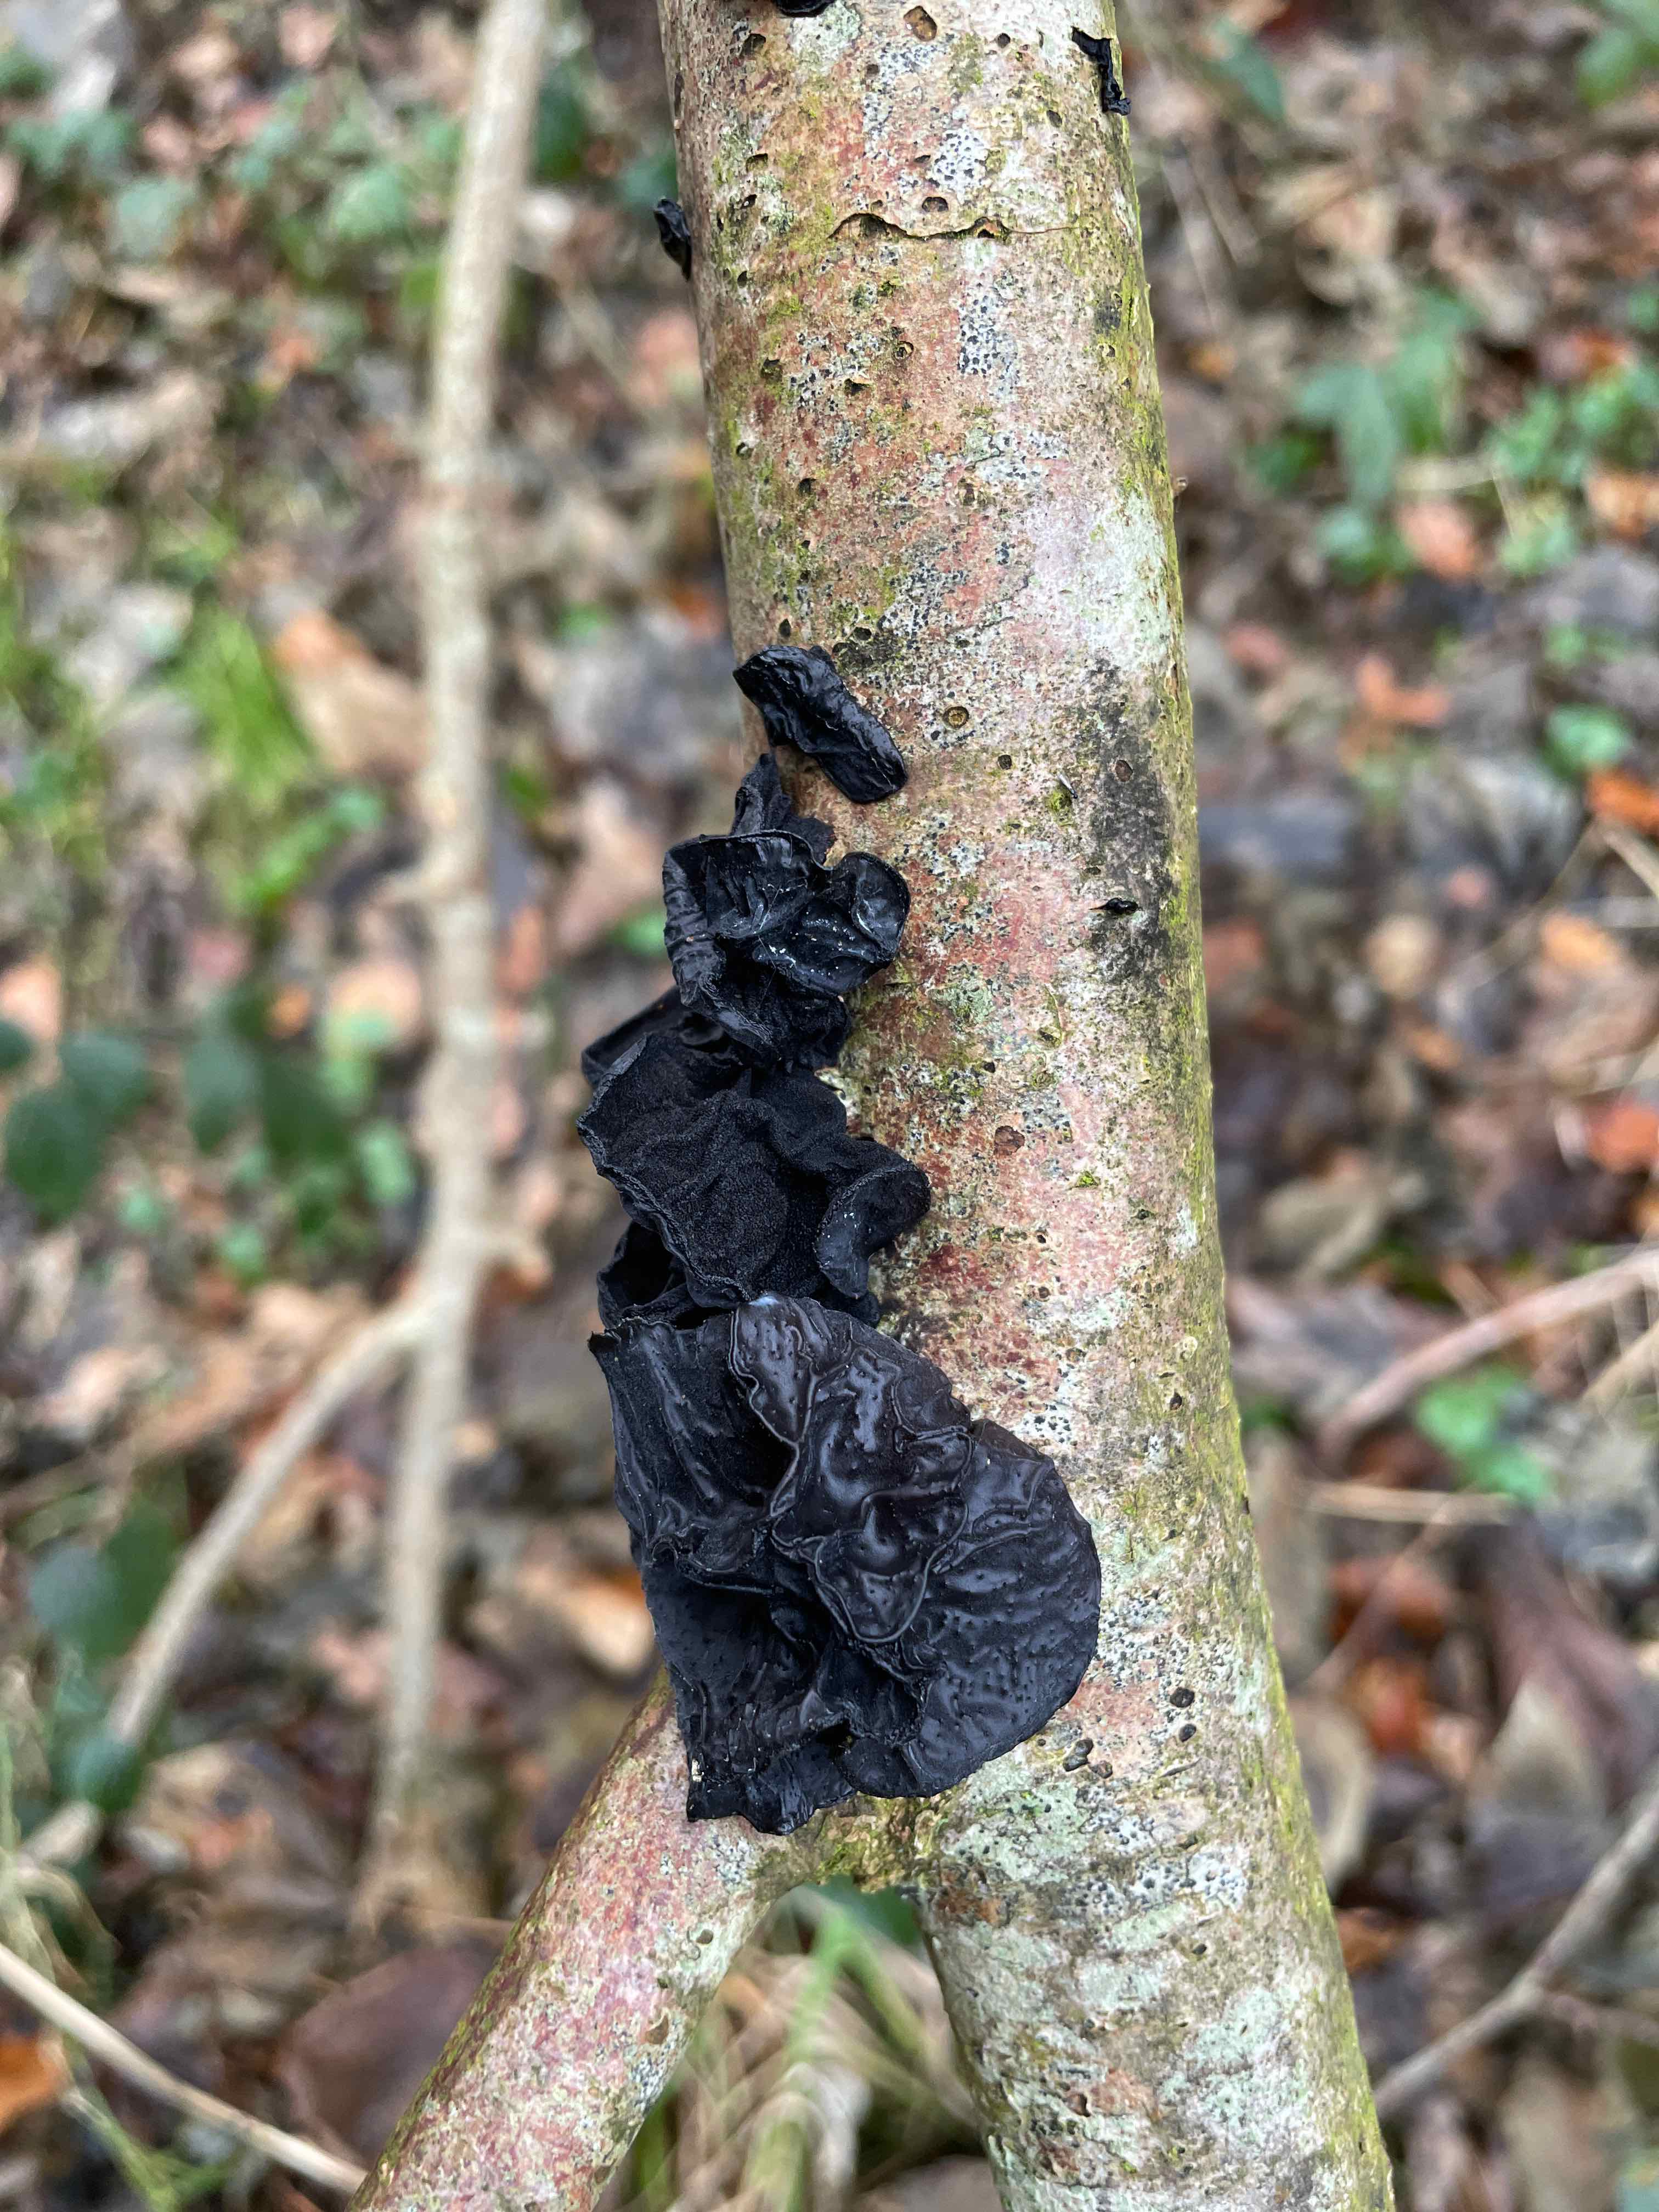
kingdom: Fungi
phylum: Basidiomycota
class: Agaricomycetes
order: Auriculariales
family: Auriculariaceae
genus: Exidia
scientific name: Exidia glandulosa
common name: ege-bævretop
